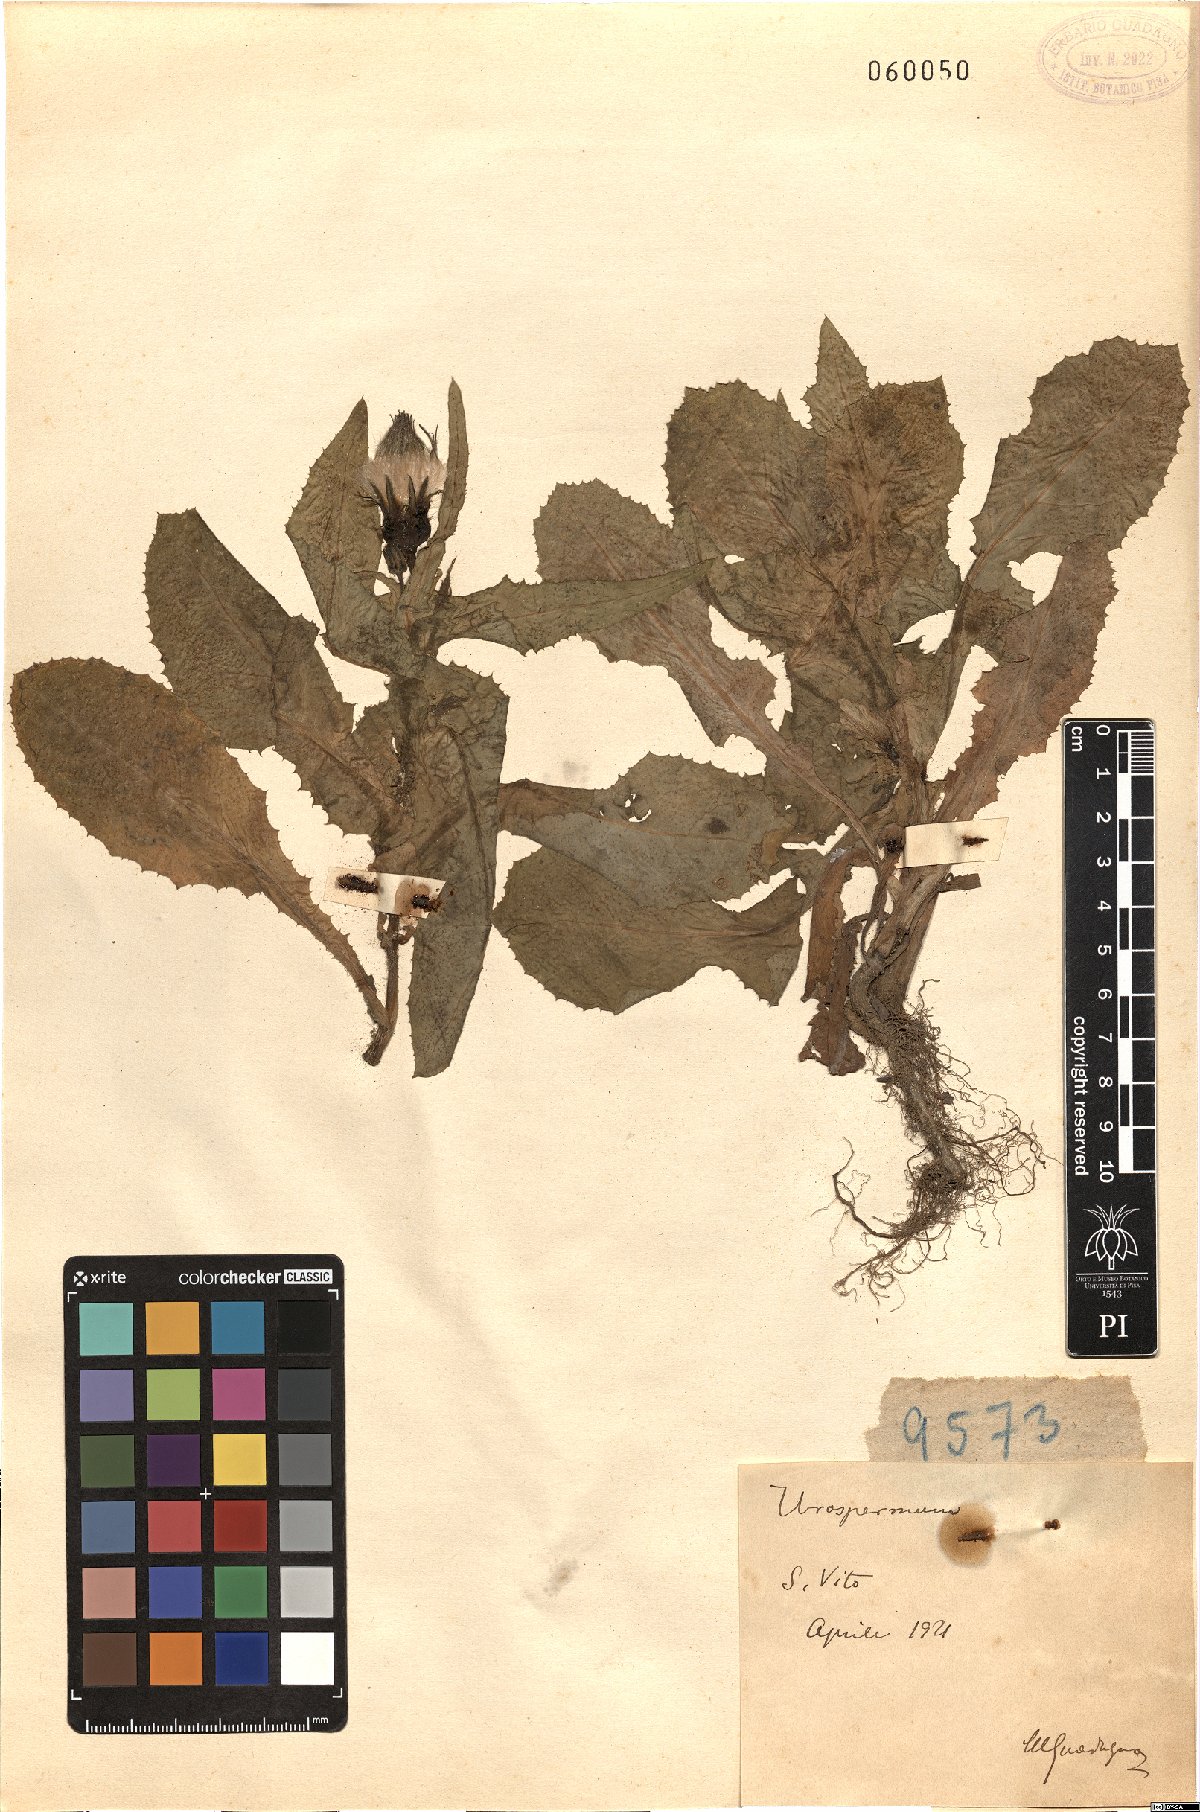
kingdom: Plantae
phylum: Tracheophyta
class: Magnoliopsida
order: Asterales
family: Asteraceae
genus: Urospermum
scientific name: Urospermum
